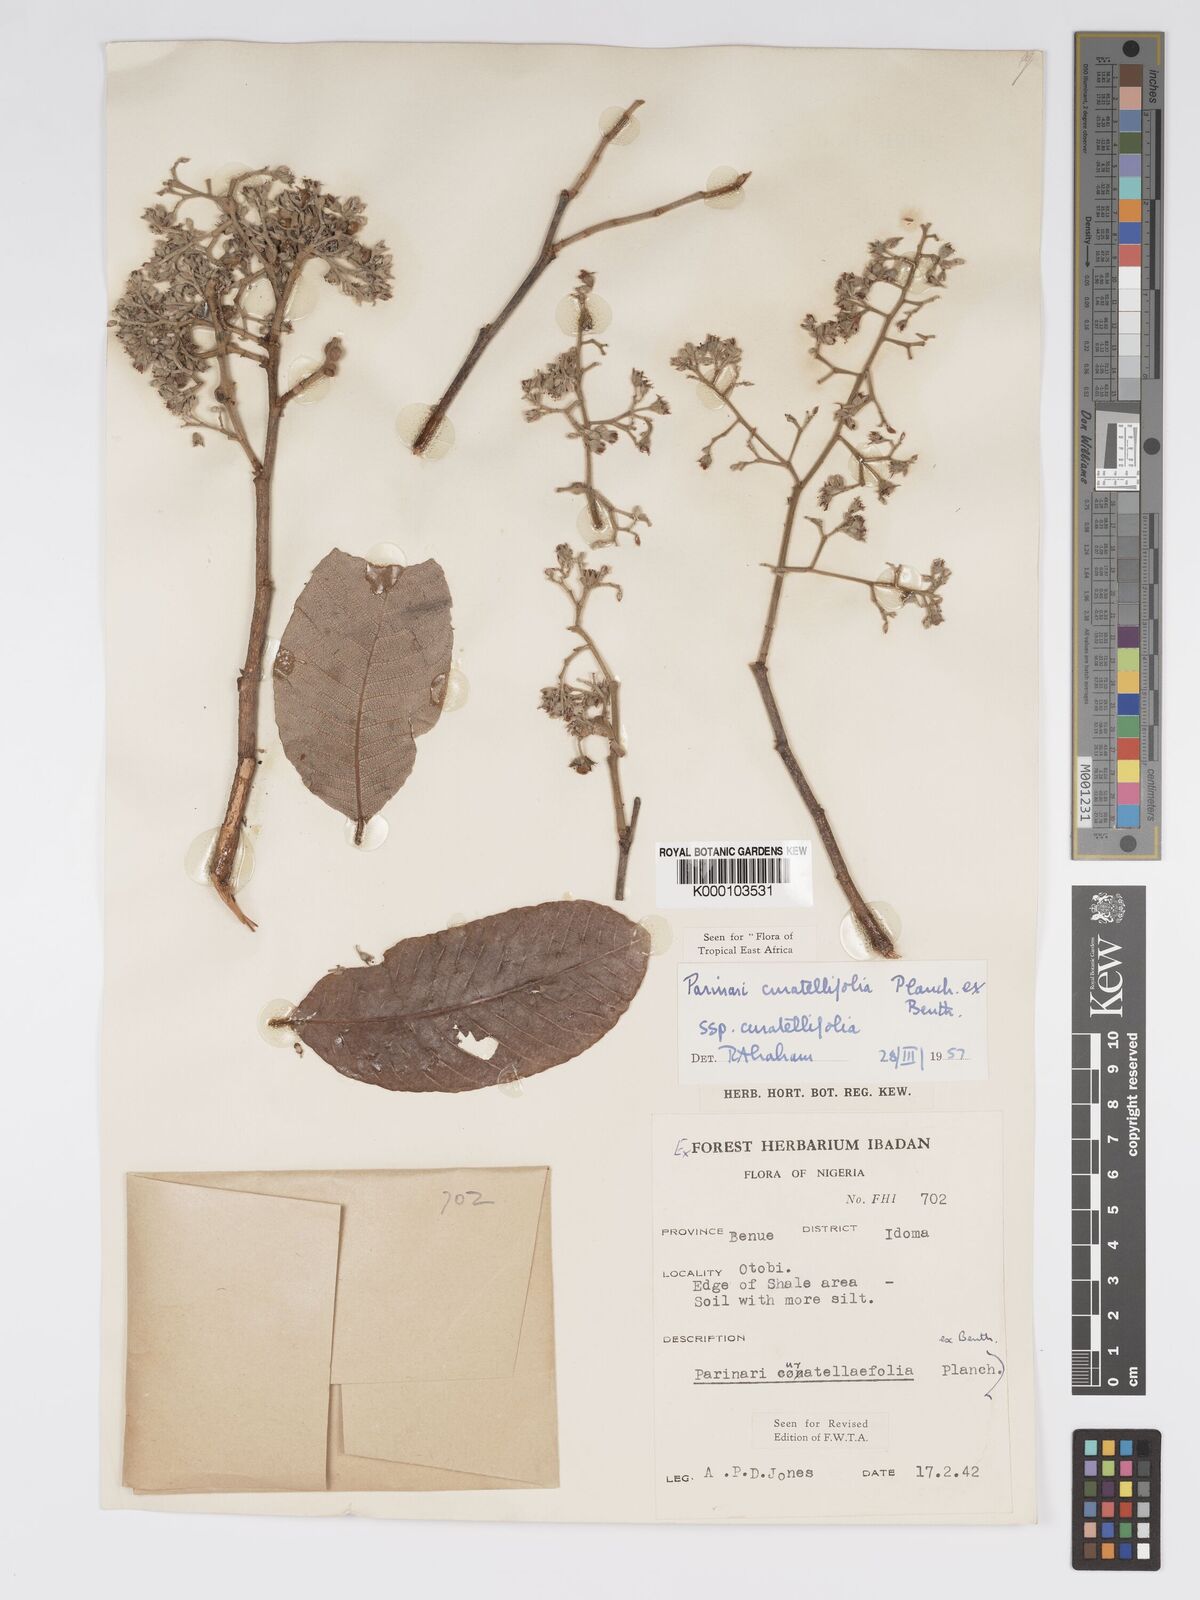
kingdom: Plantae
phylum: Tracheophyta
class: Magnoliopsida
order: Malpighiales
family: Chrysobalanaceae
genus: Parinari
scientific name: Parinari curatellifolia
